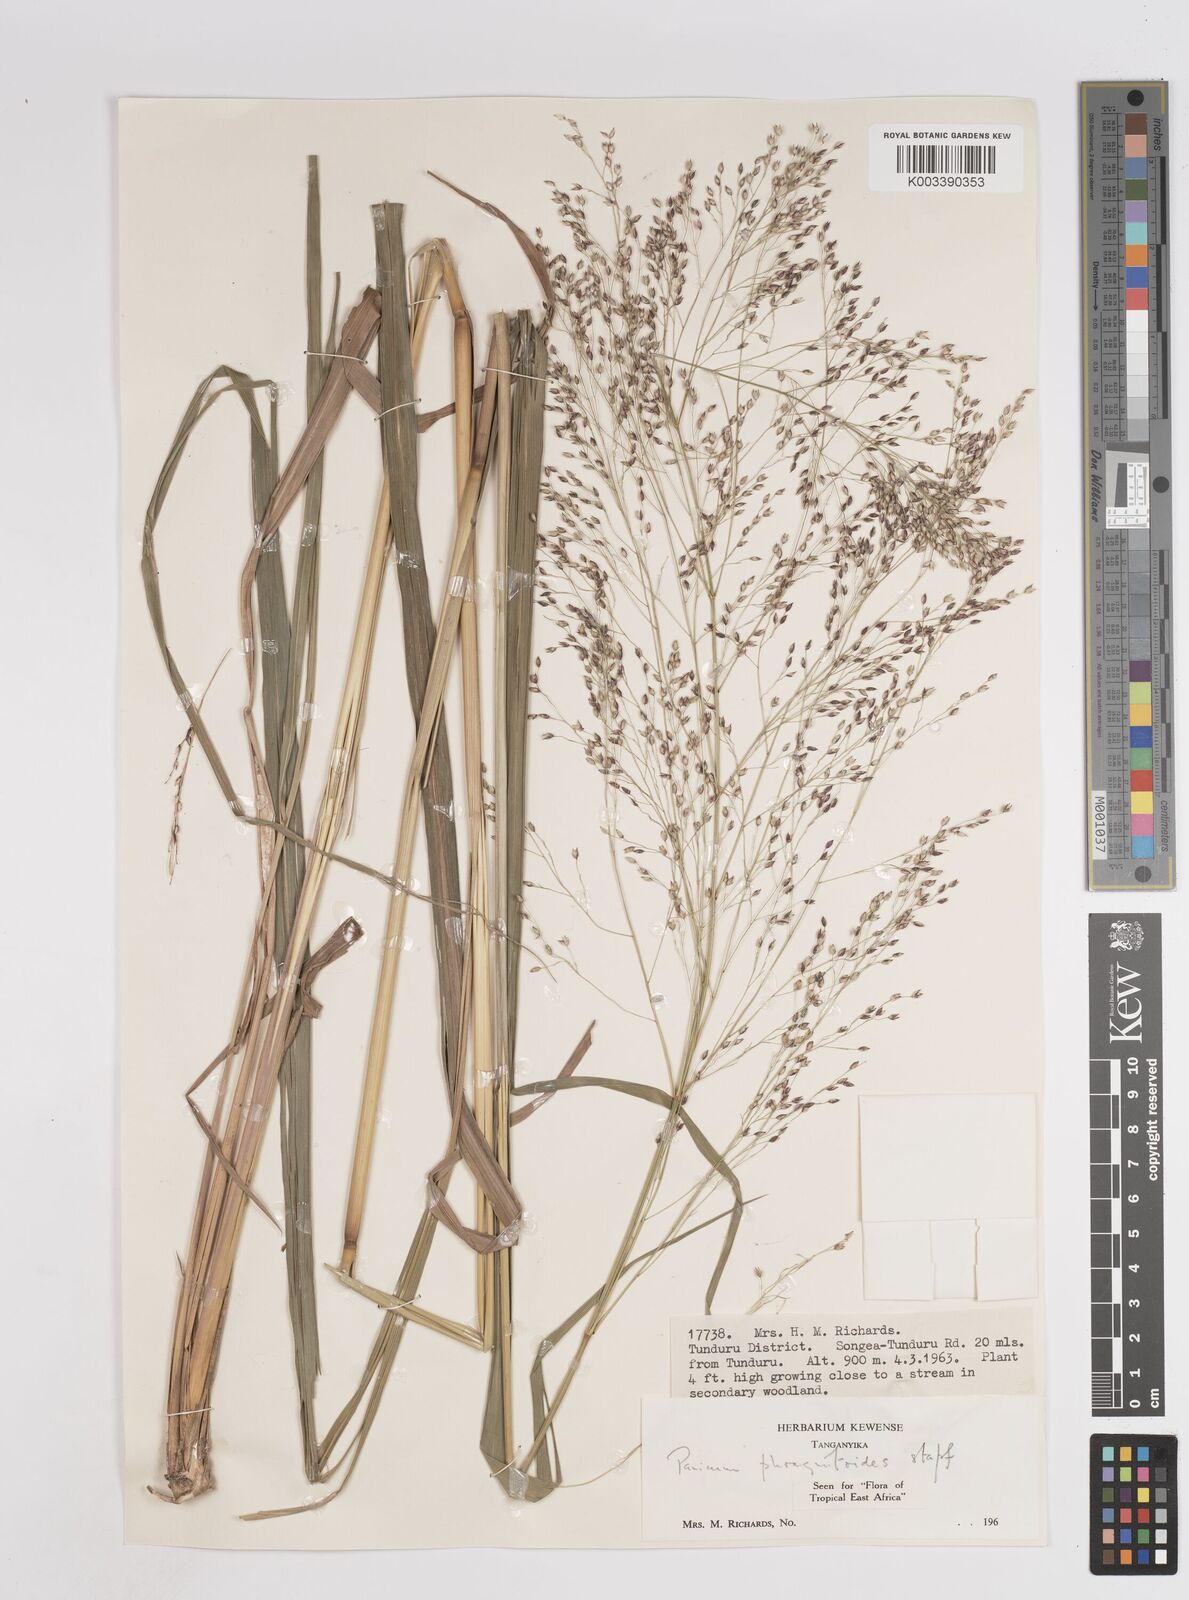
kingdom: Plantae
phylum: Tracheophyta
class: Liliopsida
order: Poales
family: Poaceae
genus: Panicum
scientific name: Panicum phragmitoides
